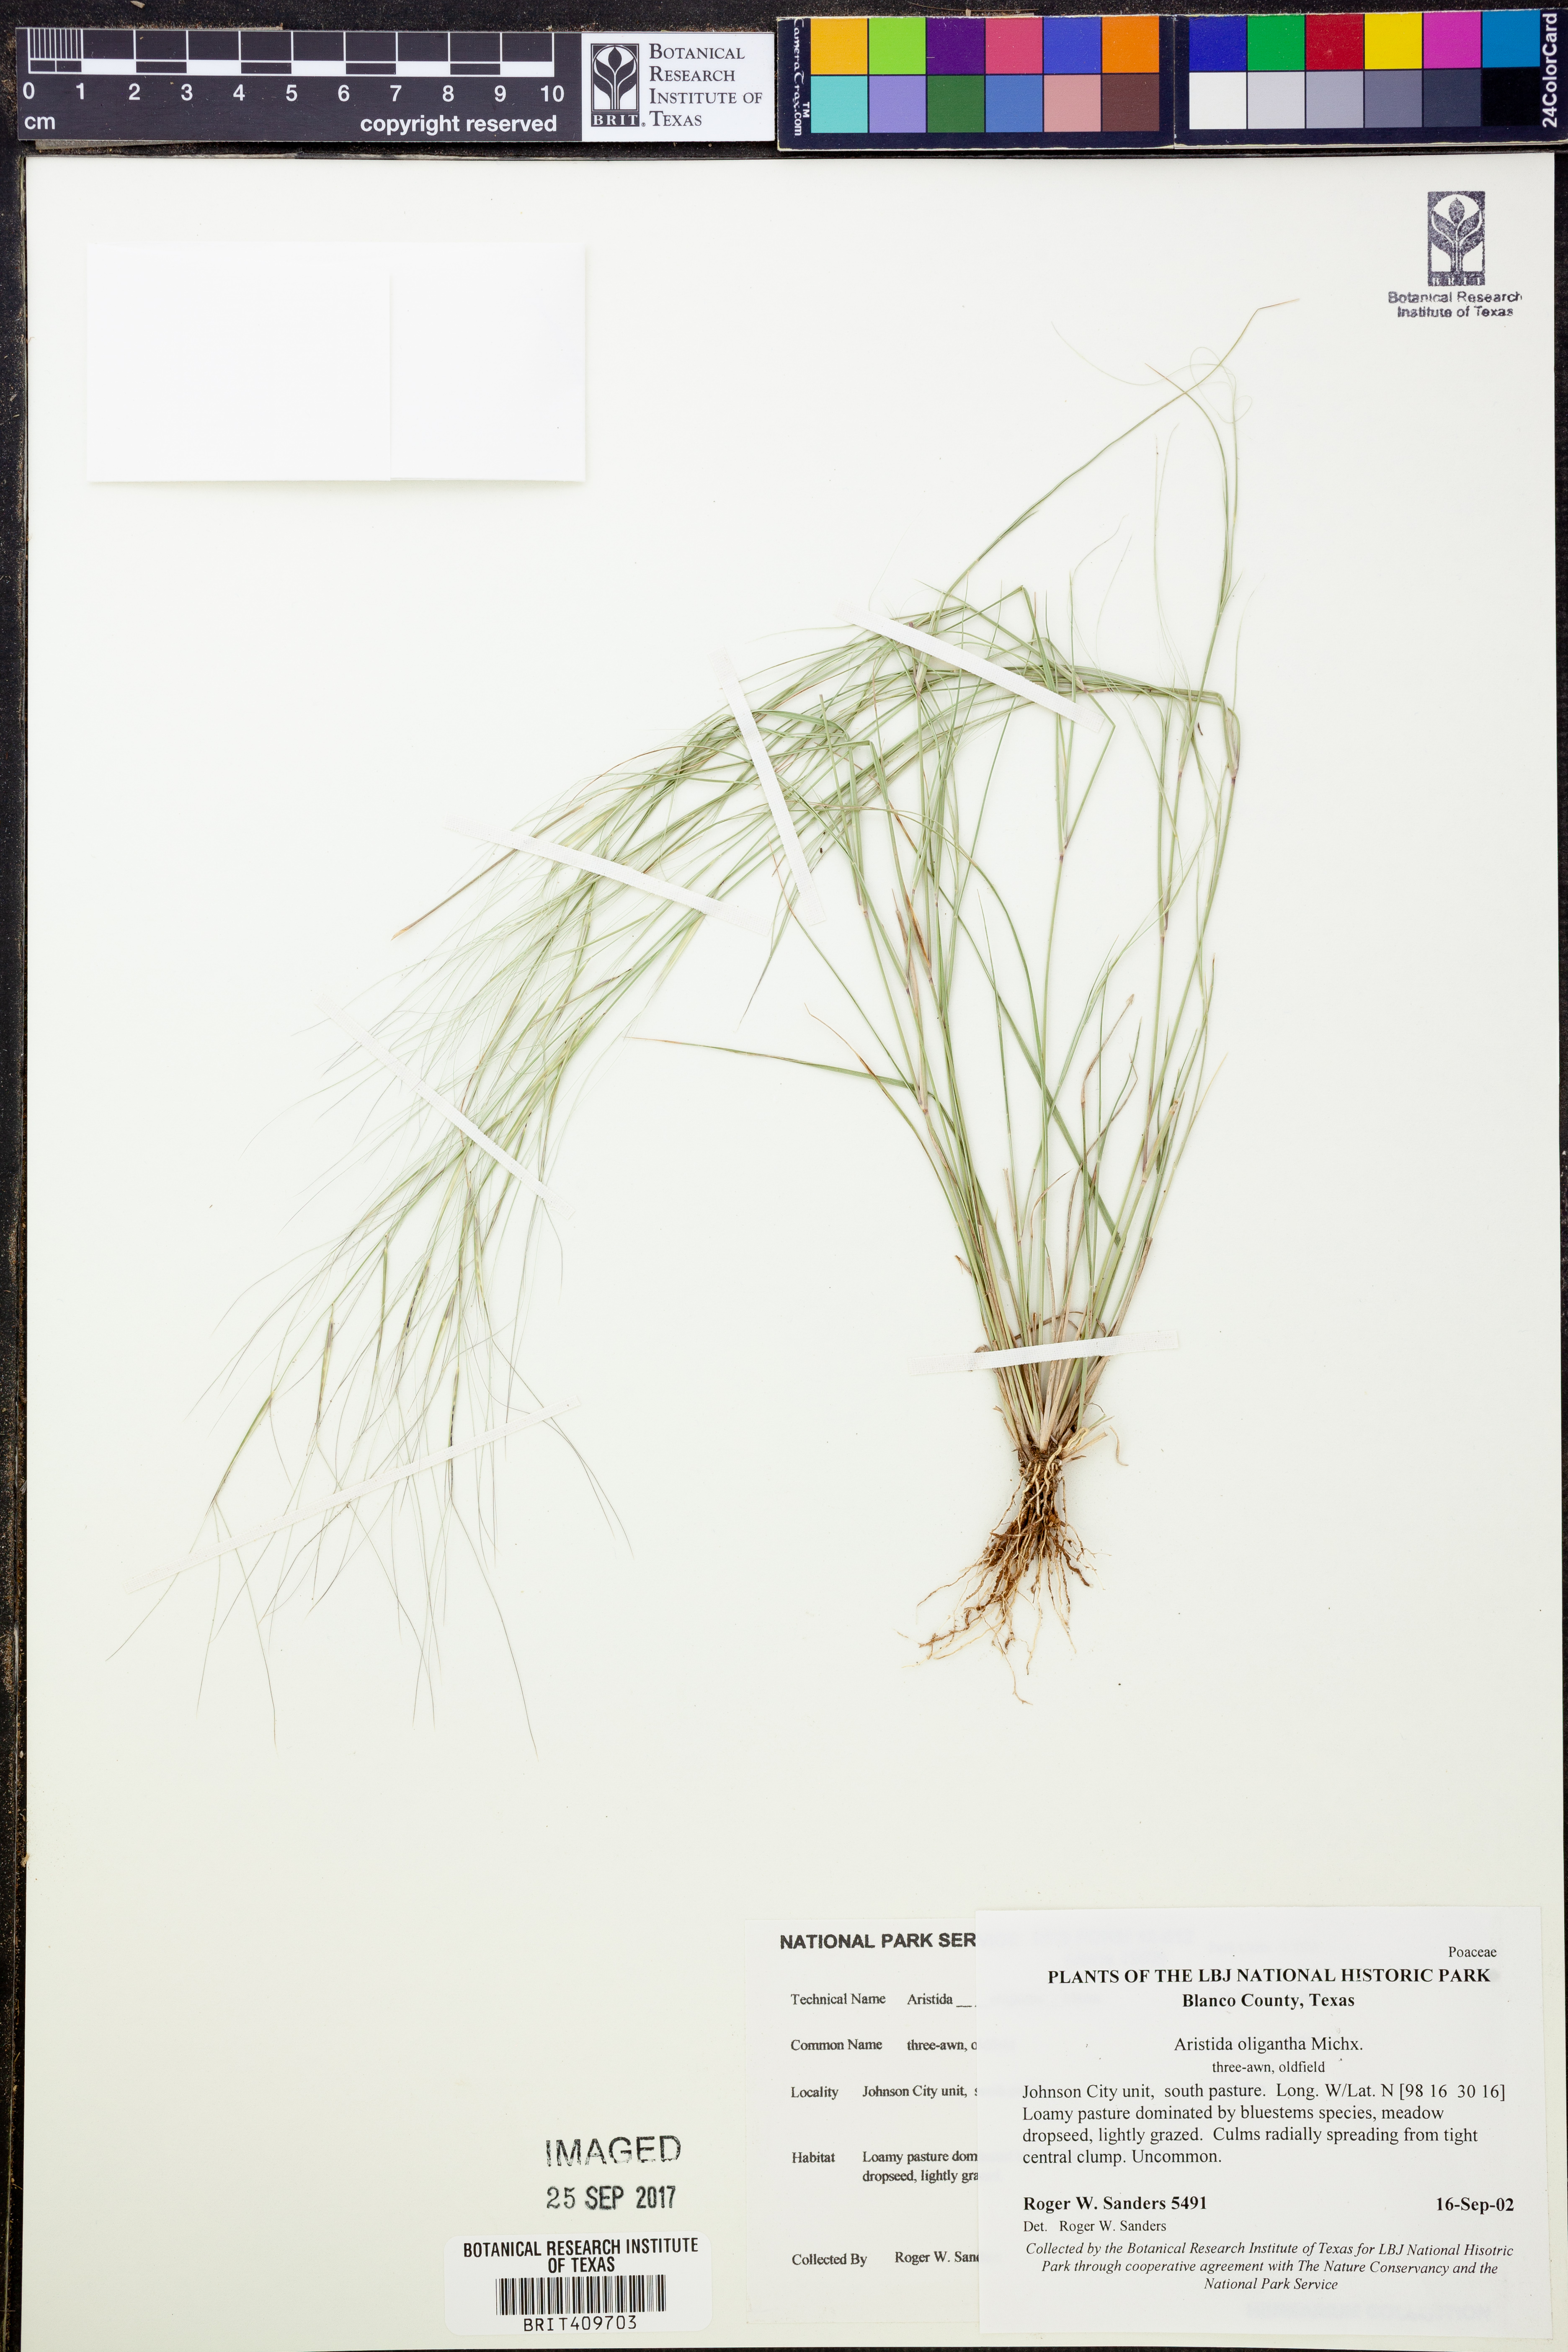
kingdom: Plantae
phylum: Tracheophyta
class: Liliopsida
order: Poales
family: Poaceae
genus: Aristida
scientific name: Aristida oligantha
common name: Few-flowered aristida
